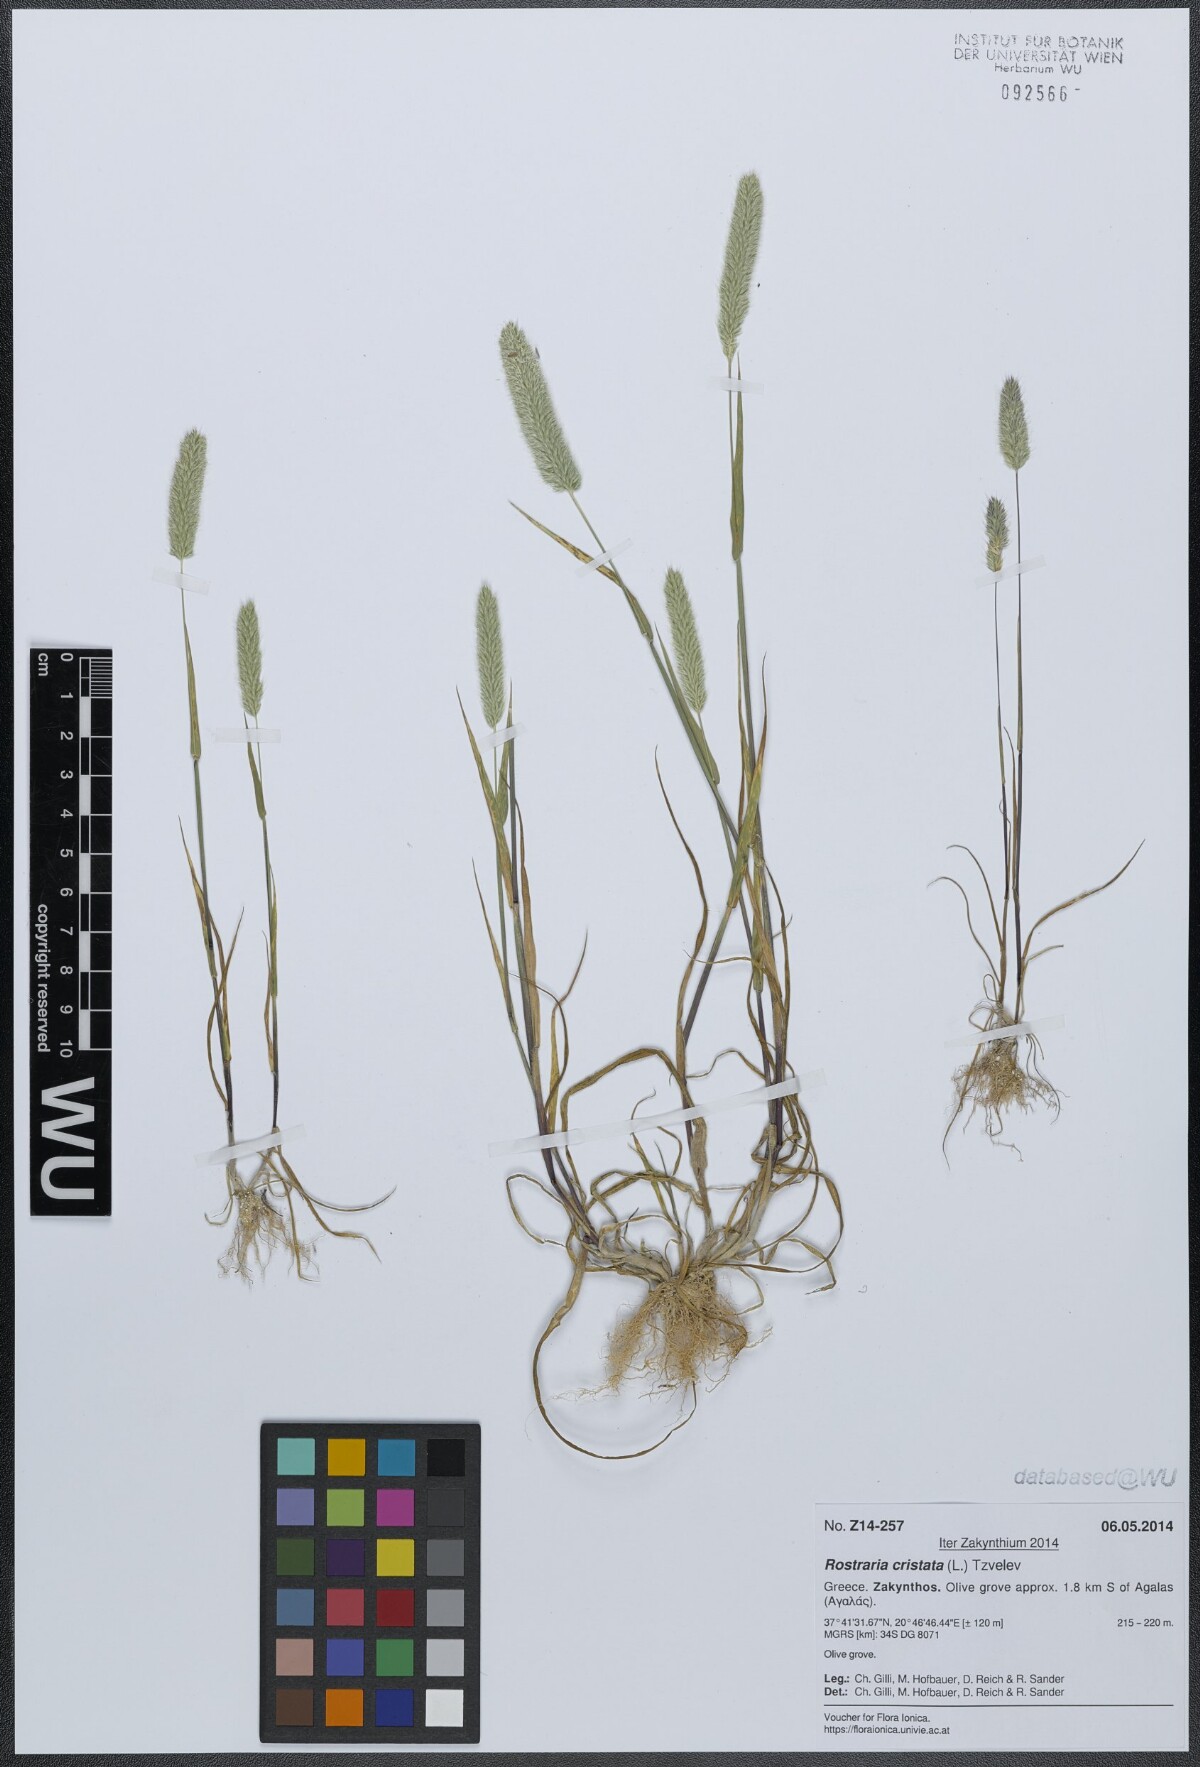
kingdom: Plantae
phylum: Tracheophyta
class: Liliopsida
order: Poales
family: Poaceae
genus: Rostraria
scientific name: Rostraria cristata
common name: Mediterranean hair-grass
